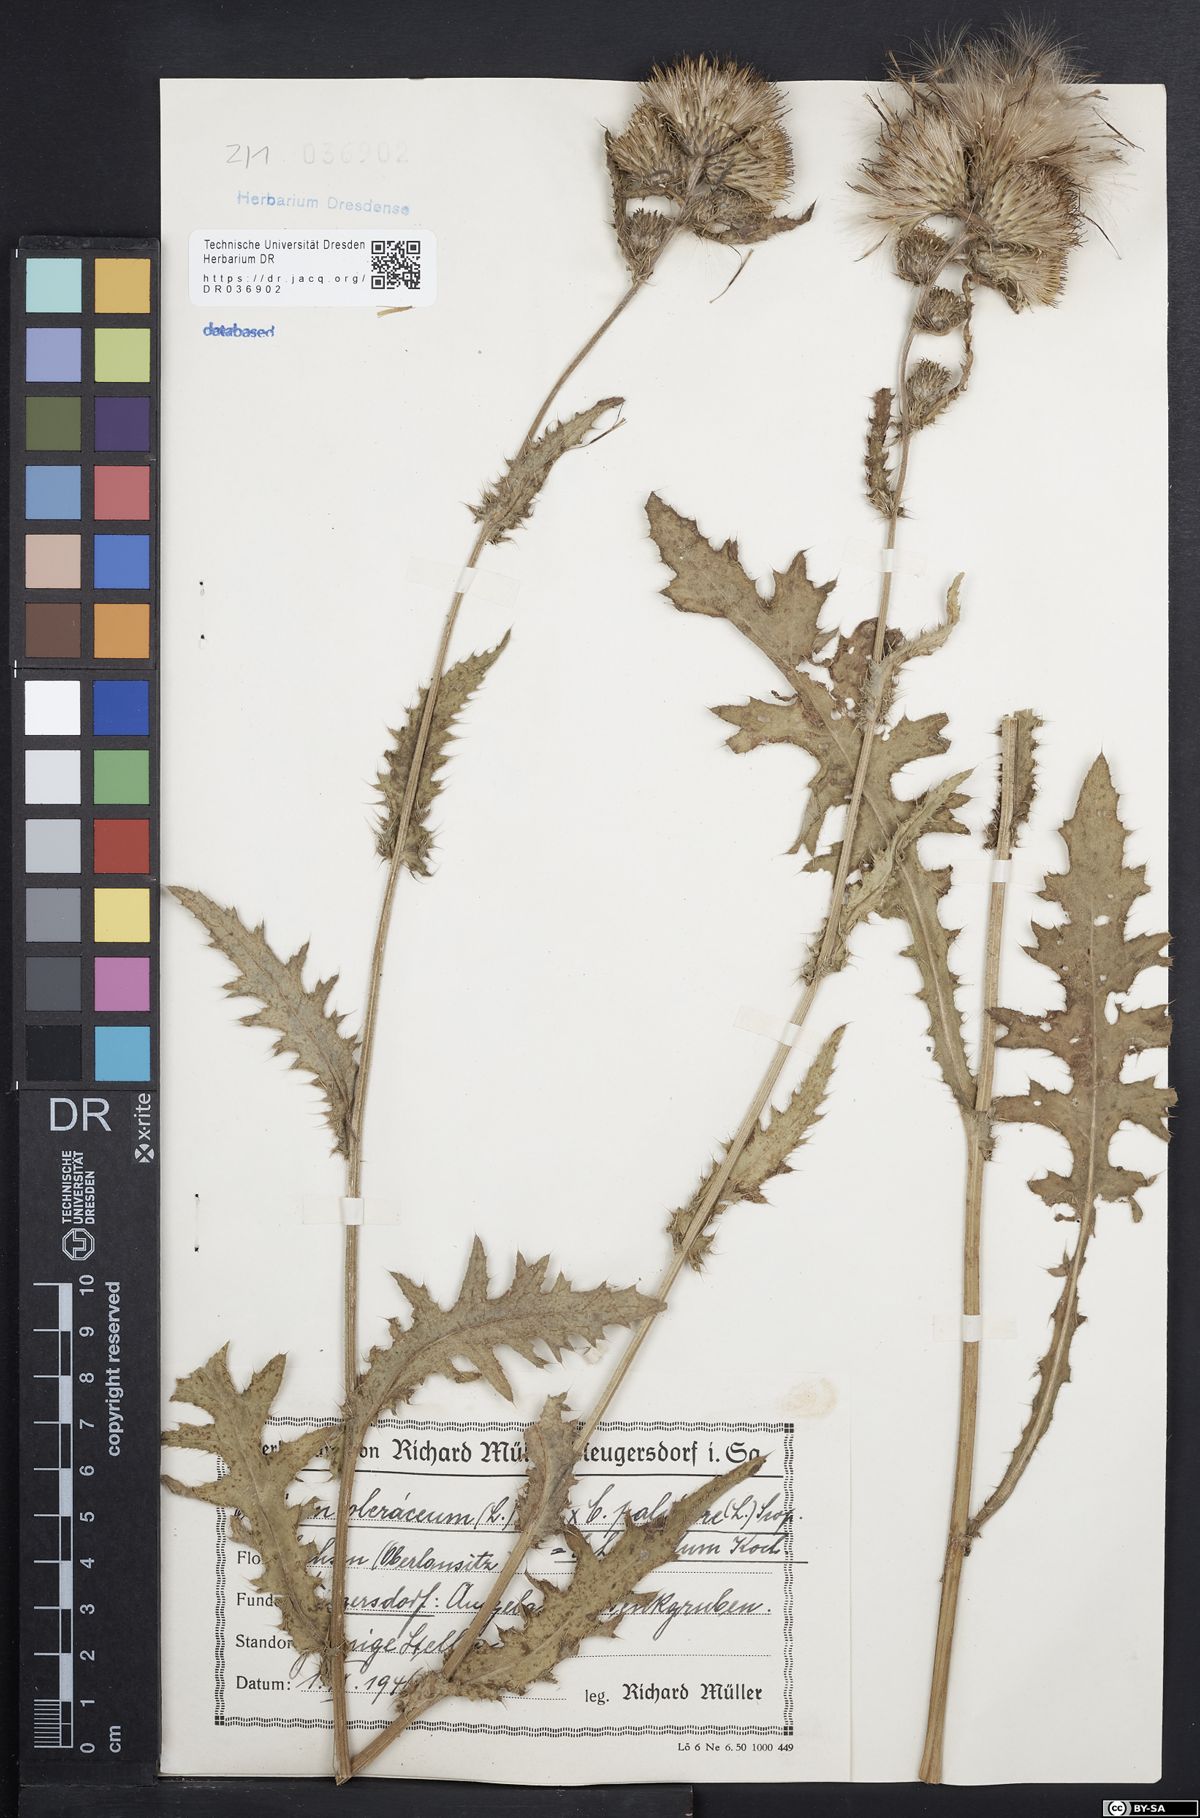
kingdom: Plantae
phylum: Tracheophyta
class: Magnoliopsida
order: Asterales
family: Asteraceae
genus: Cirsium
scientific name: Cirsium oleraceum
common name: Cabbage thistle
